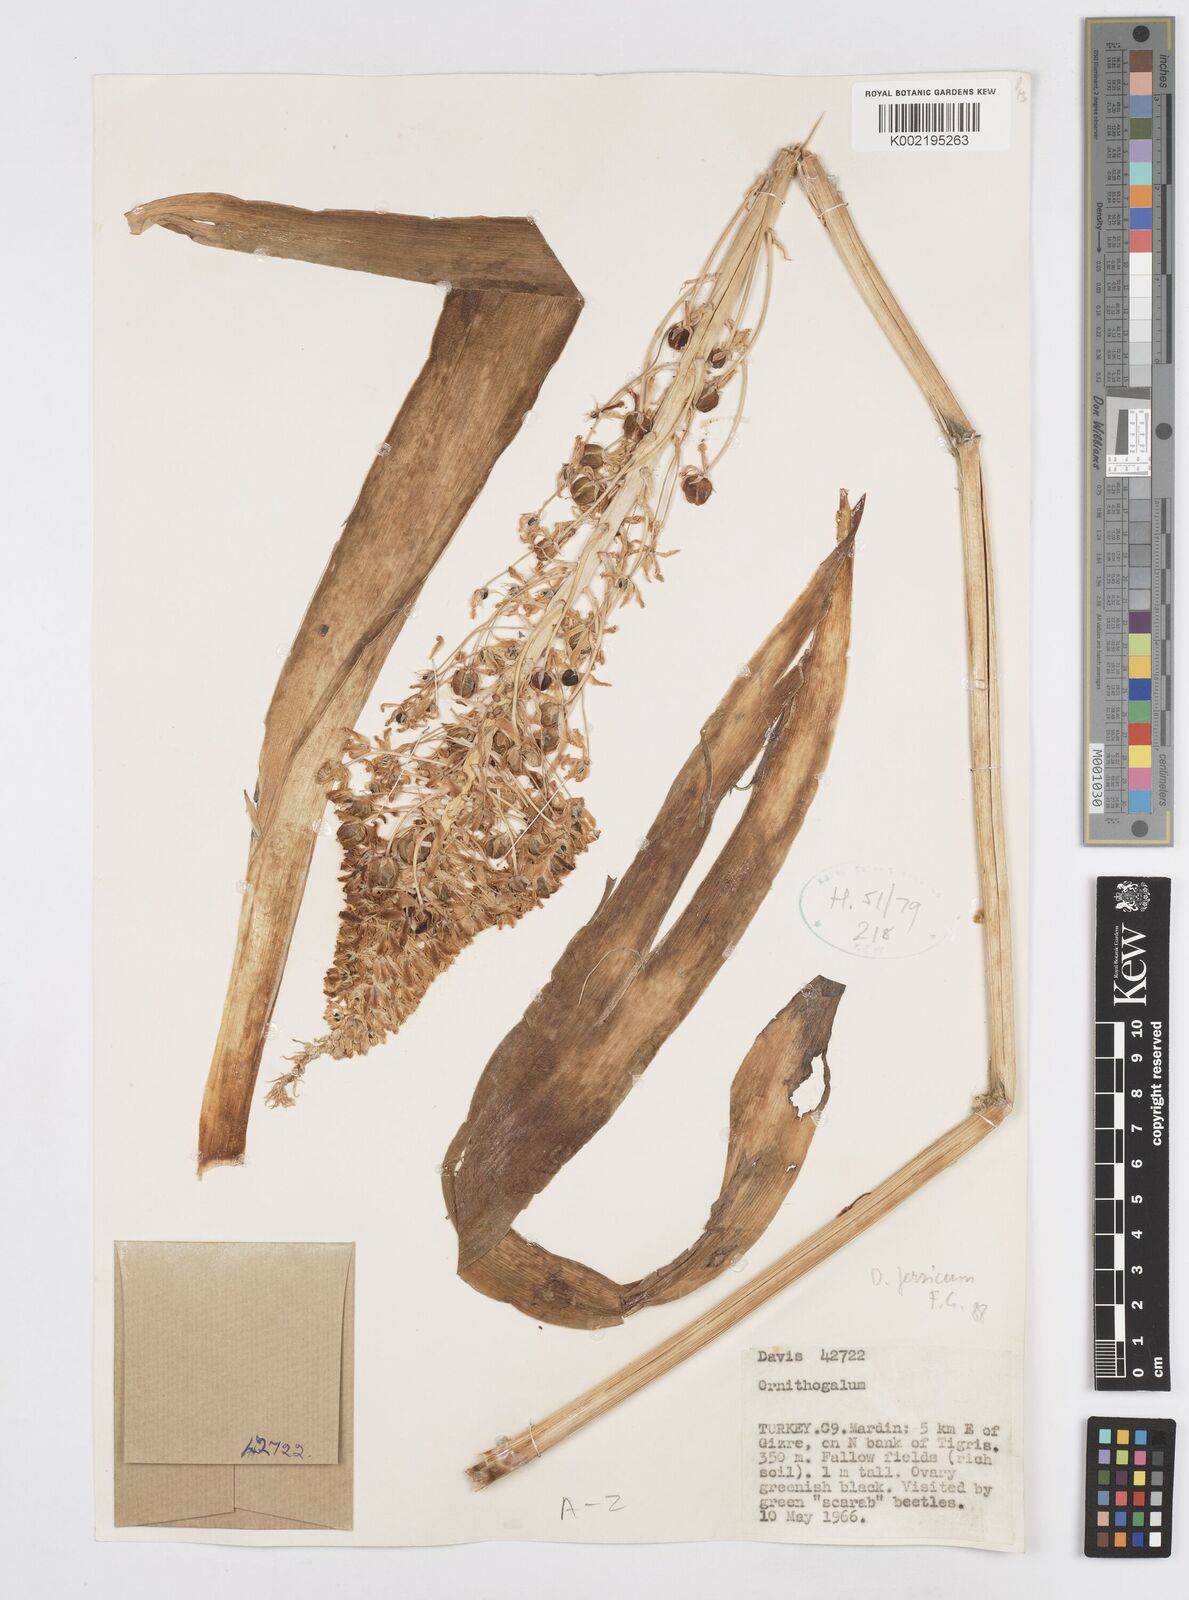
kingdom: Plantae
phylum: Tracheophyta
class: Liliopsida
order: Asparagales
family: Asparagaceae
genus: Ornithogalum
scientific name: Ornithogalum persicum
